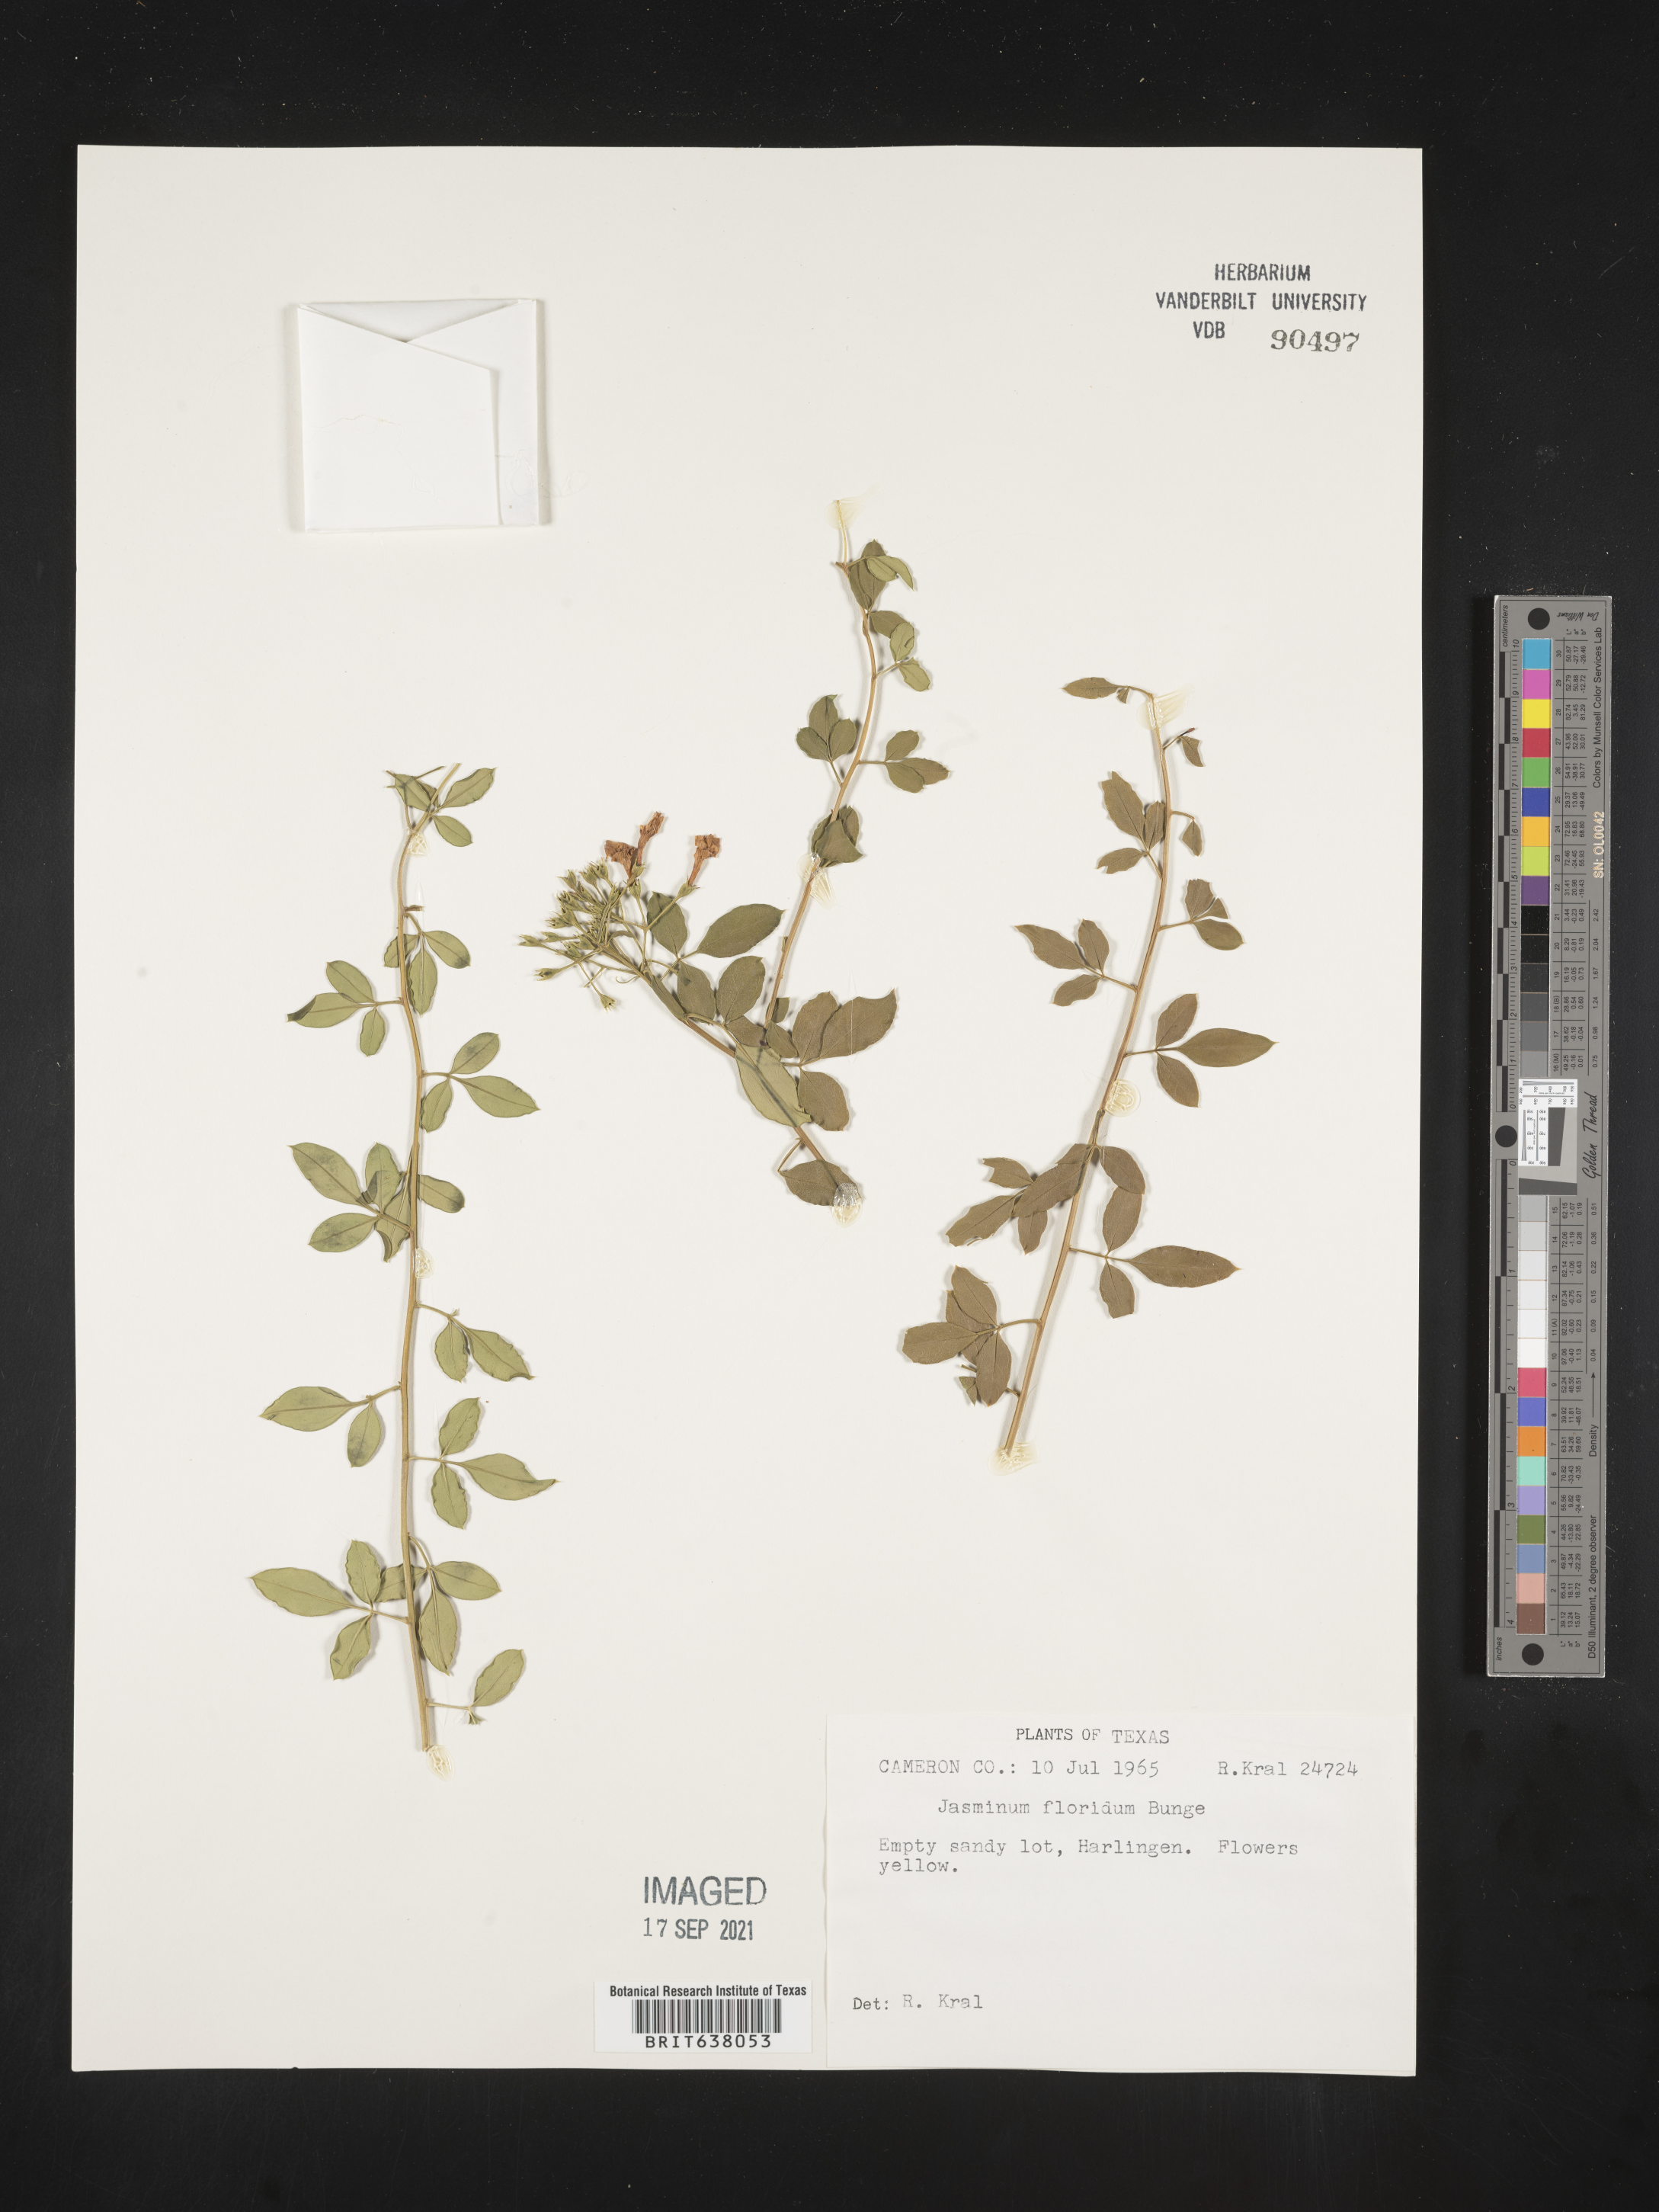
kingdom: Plantae
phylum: Tracheophyta
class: Magnoliopsida
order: Lamiales
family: Oleaceae
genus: Jasminum
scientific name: Jasminum
